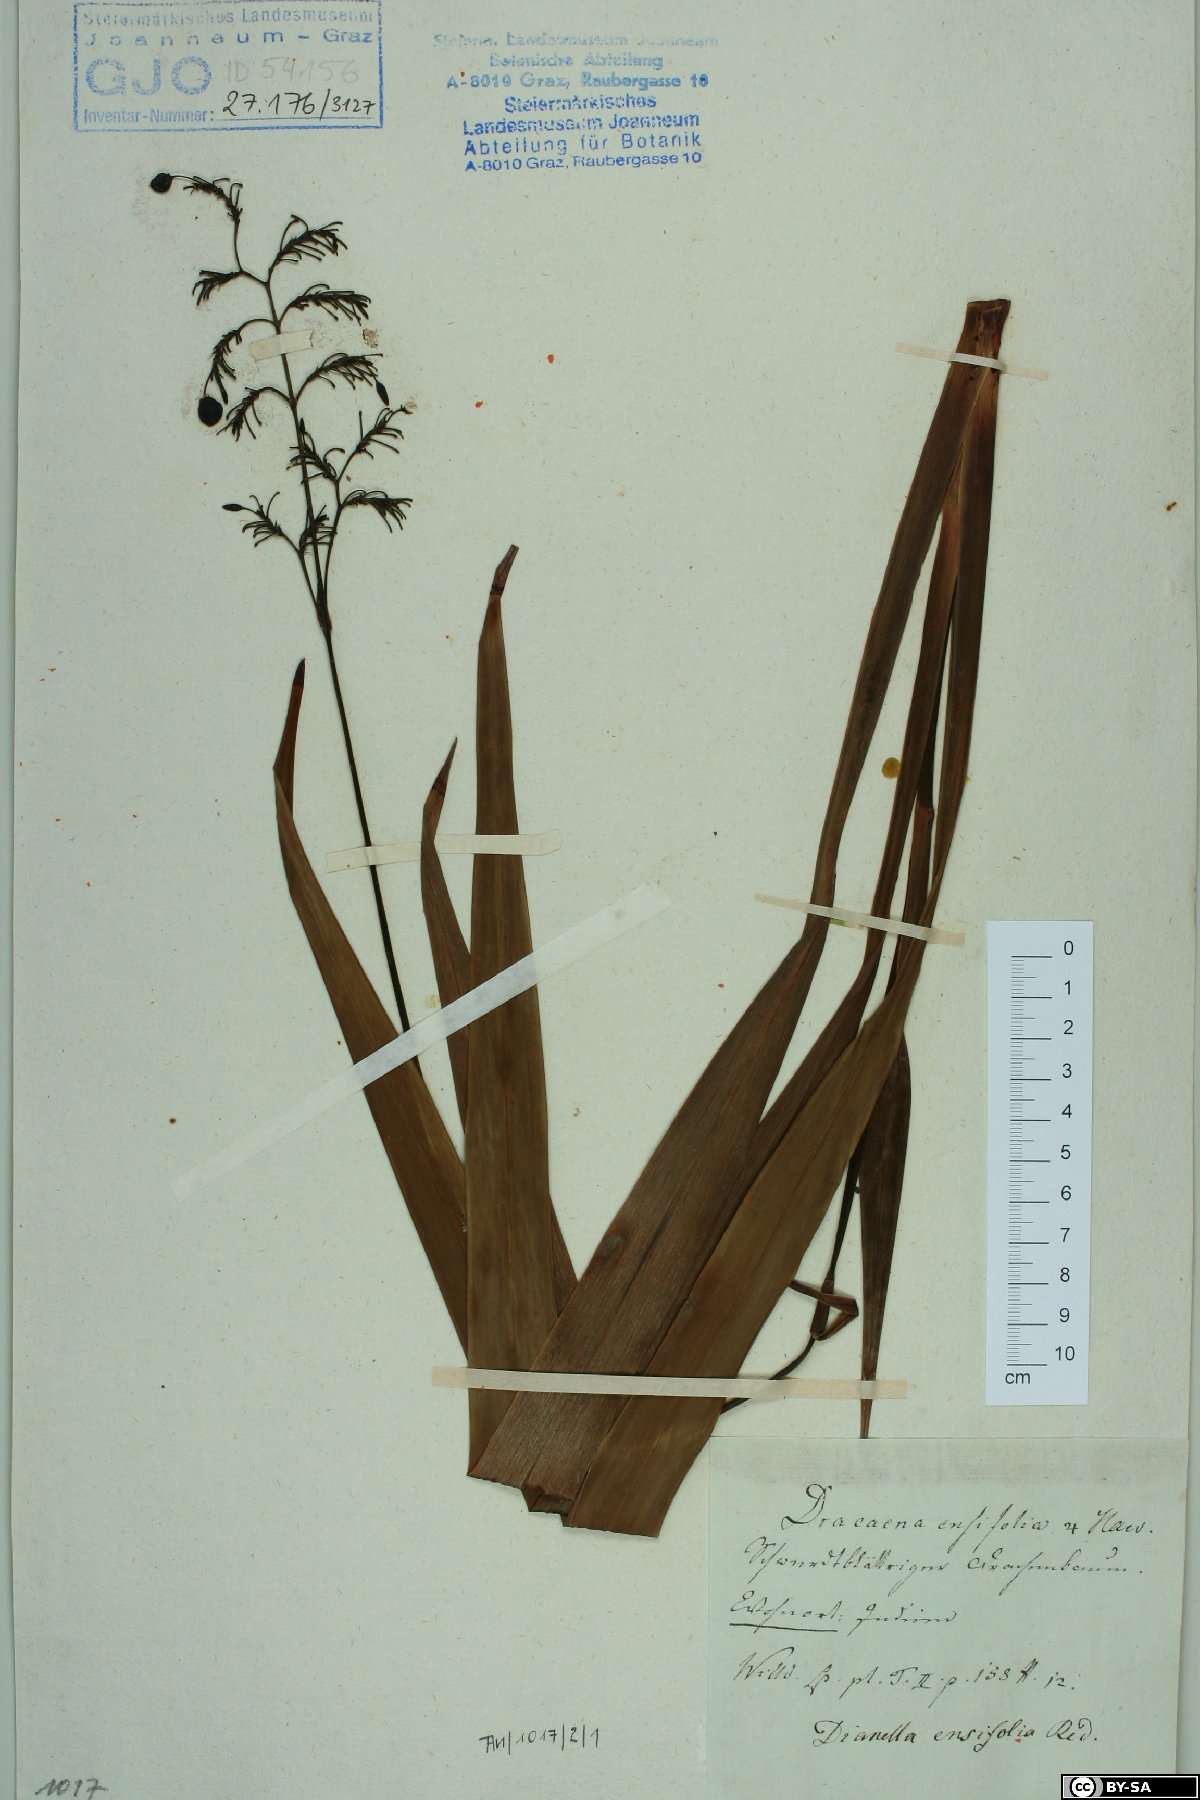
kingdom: Plantae
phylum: Tracheophyta
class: Liliopsida
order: Asparagales
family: Asparagaceae
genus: Dracaena
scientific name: Dracaena ensifolia
